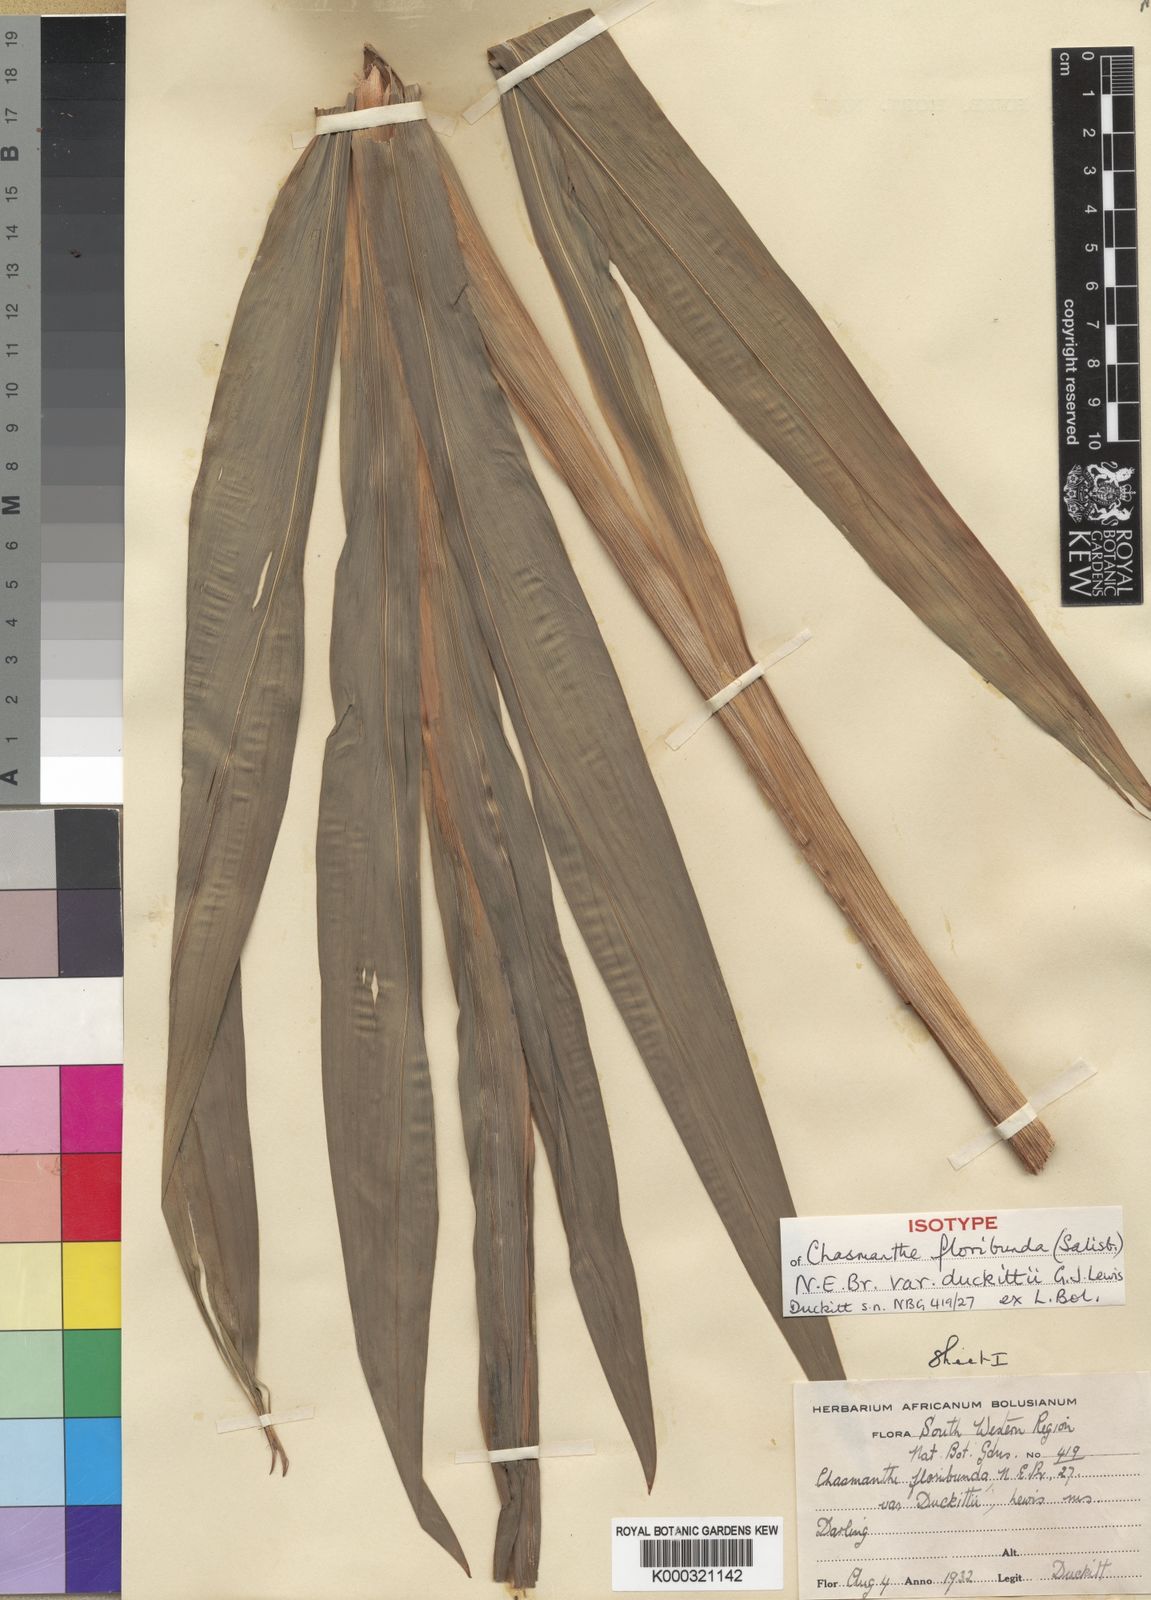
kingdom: Plantae
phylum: Tracheophyta
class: Liliopsida
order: Asparagales
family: Iridaceae
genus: Chasmanthe
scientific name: Chasmanthe floribunda
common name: African cornflag
